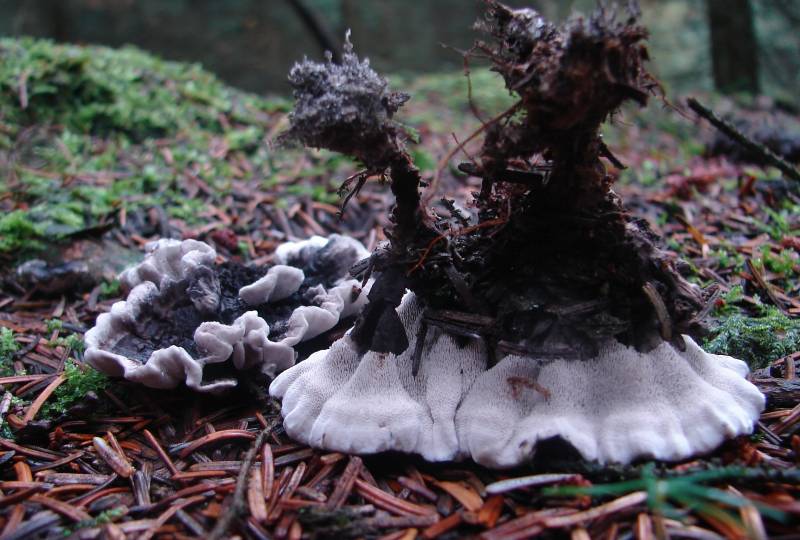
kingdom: Fungi
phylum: Basidiomycota
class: Agaricomycetes
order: Thelephorales
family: Thelephoraceae
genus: Phellodon
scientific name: Phellodon tomentosus
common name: vellugtende duftpigsvamp
